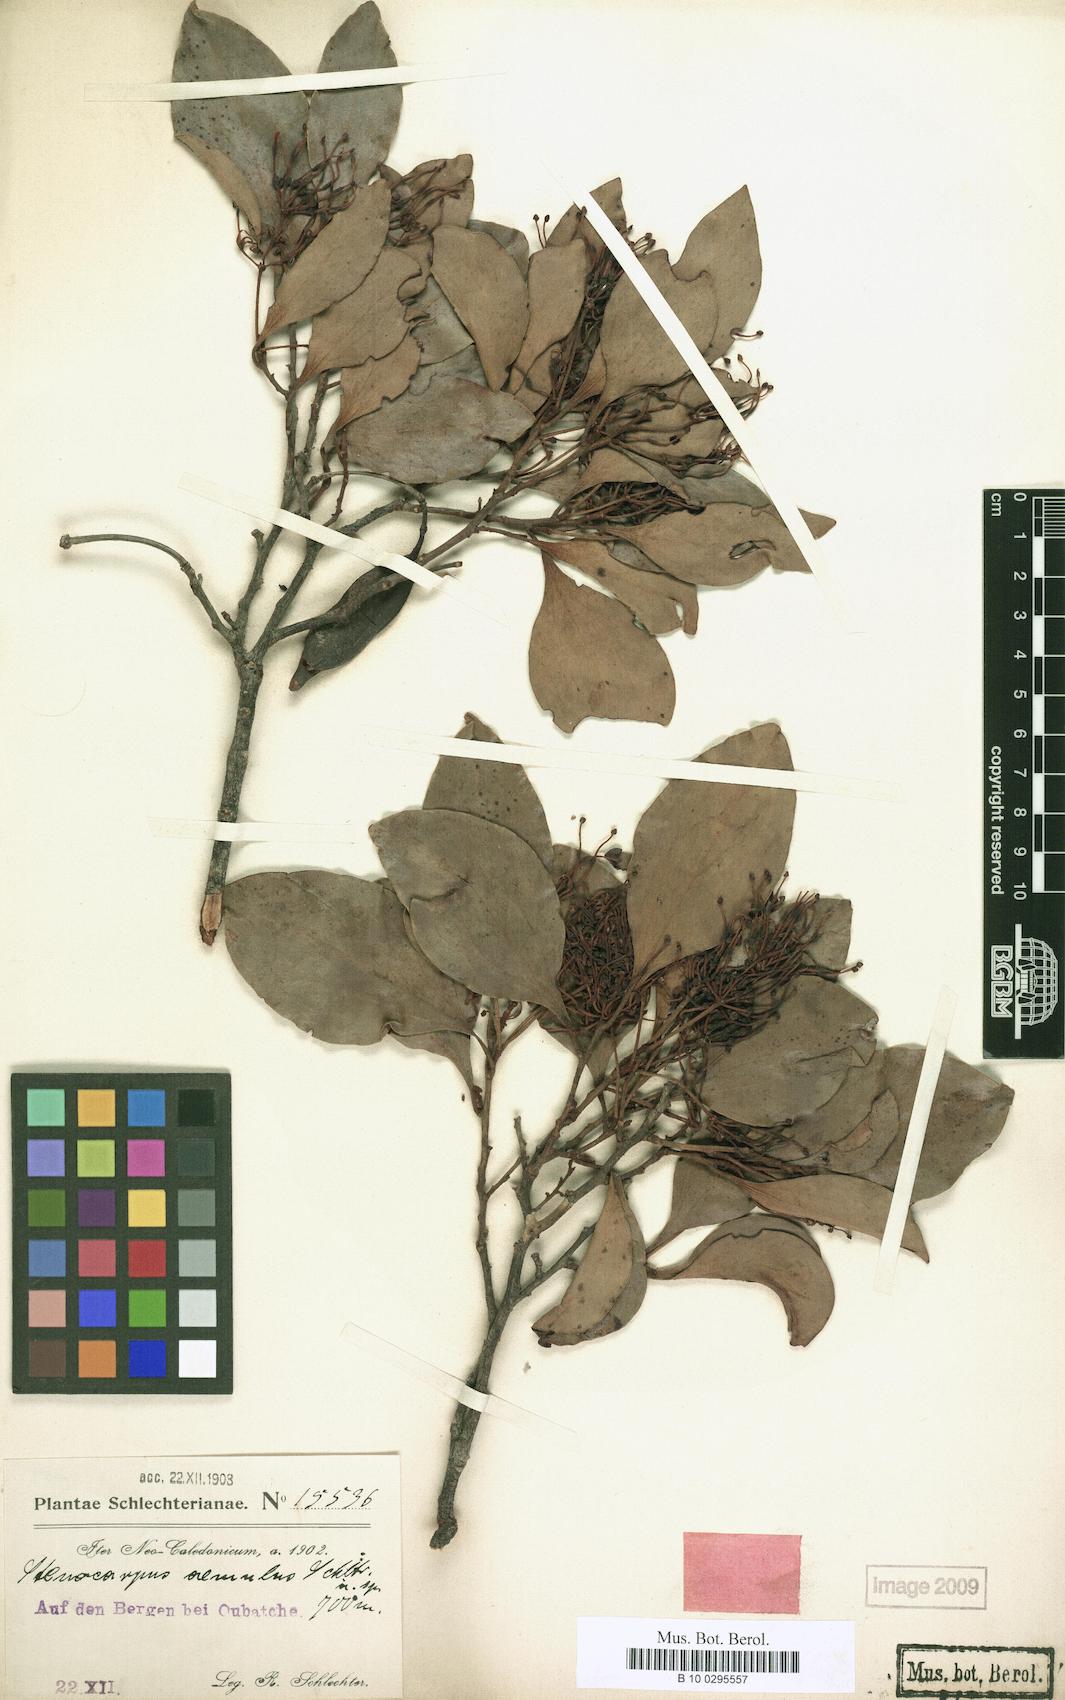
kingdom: Plantae
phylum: Tracheophyta
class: Magnoliopsida
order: Proteales
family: Proteaceae
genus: Stenocarpus
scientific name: Stenocarpus trinervis
